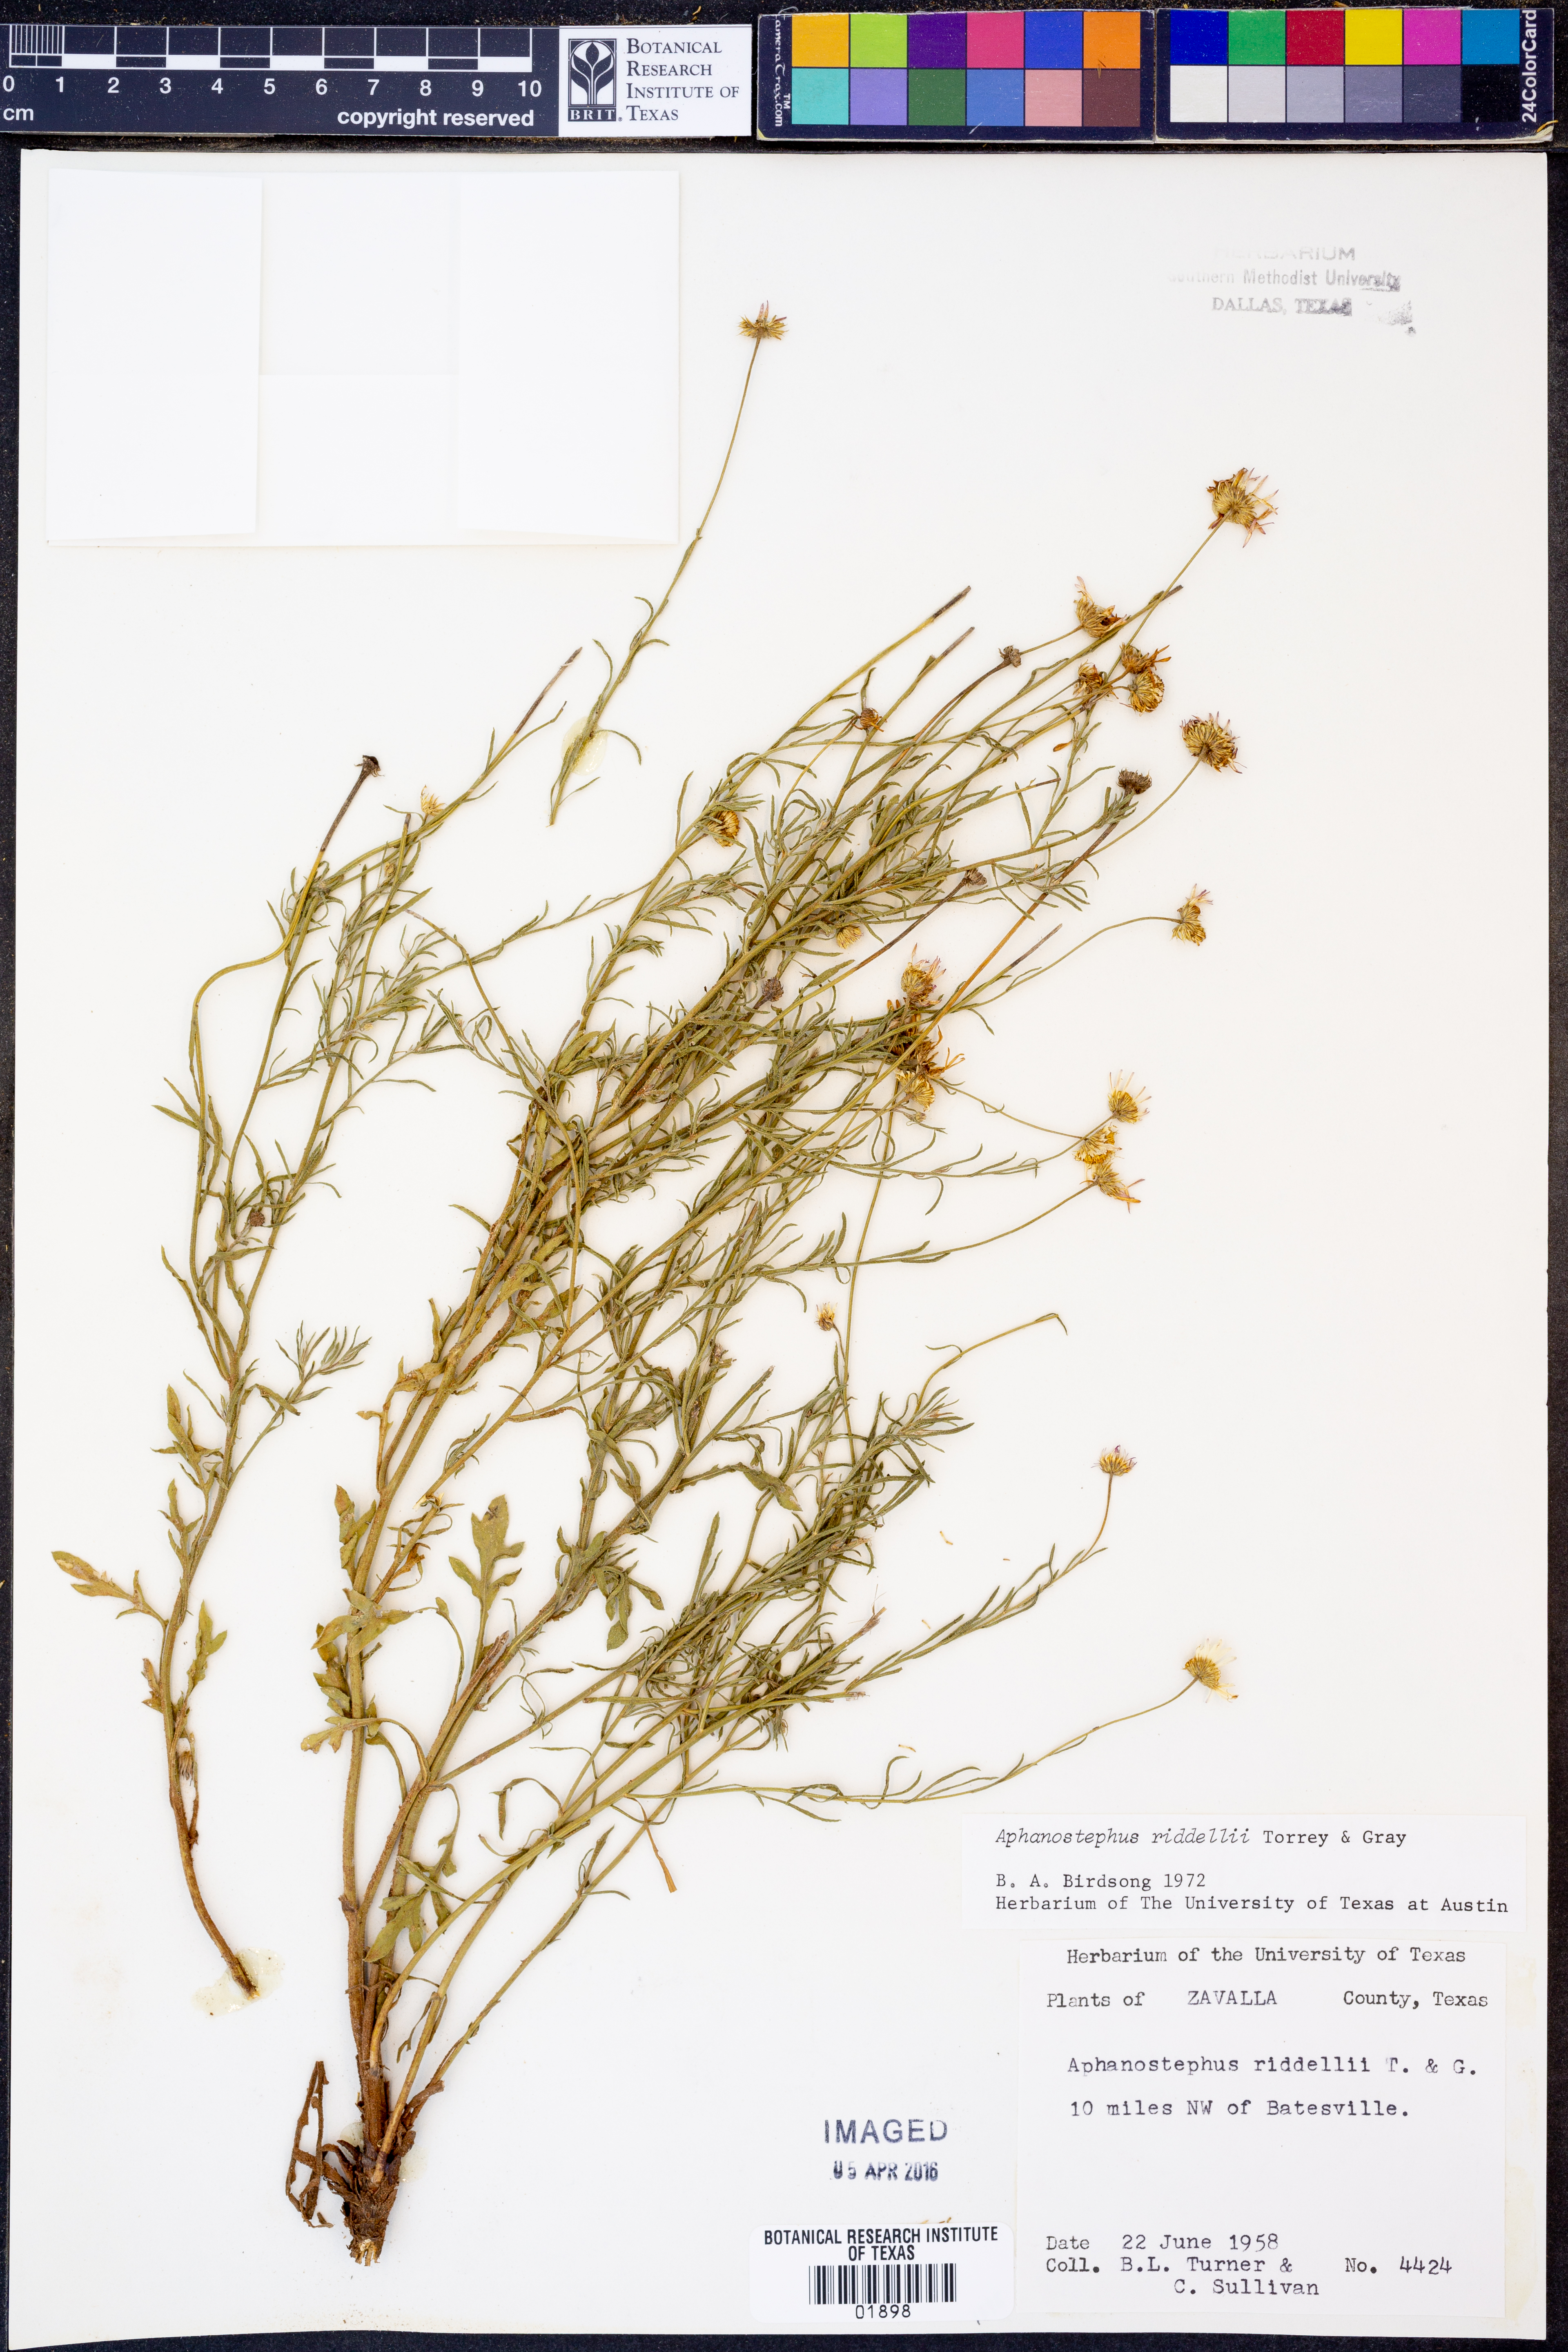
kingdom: Plantae
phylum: Tracheophyta
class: Magnoliopsida
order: Asterales
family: Asteraceae
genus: Aphanostephus
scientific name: Aphanostephus riddellii
